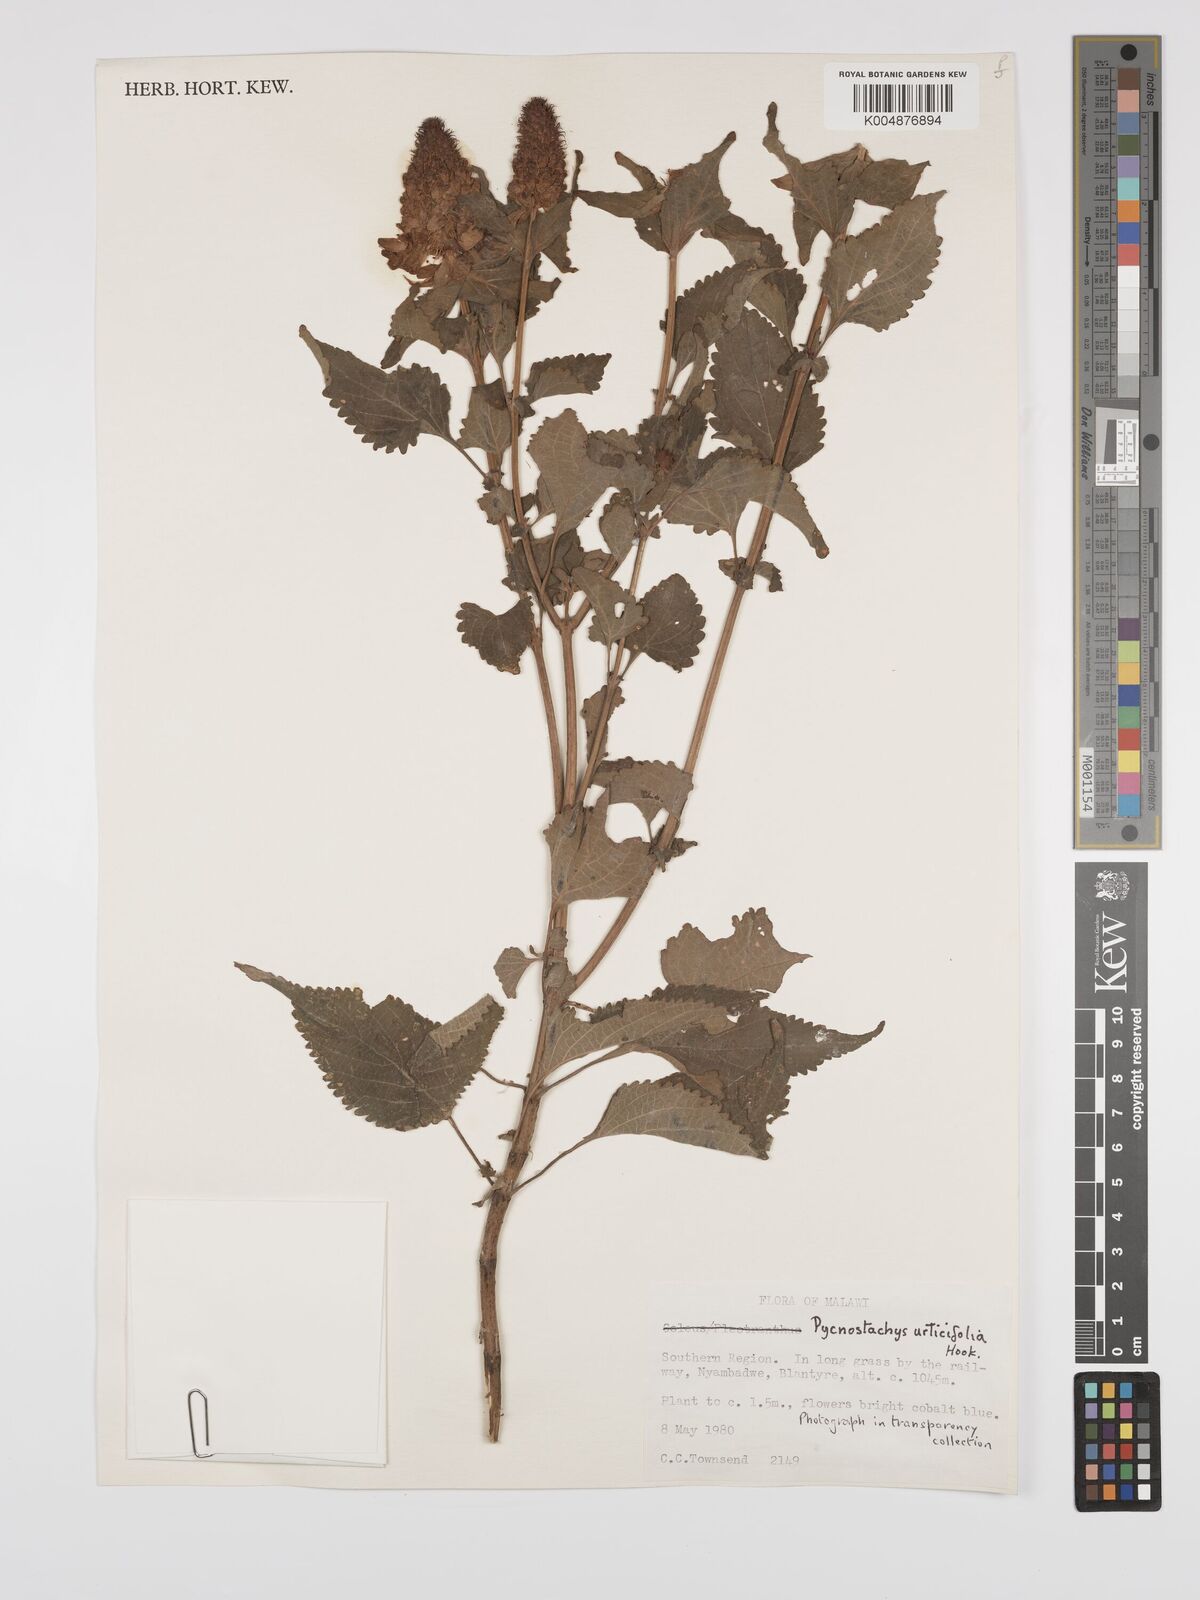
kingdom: Plantae
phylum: Tracheophyta
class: Magnoliopsida
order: Lamiales
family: Lamiaceae
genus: Coleus
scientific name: Coleus livingstonei
